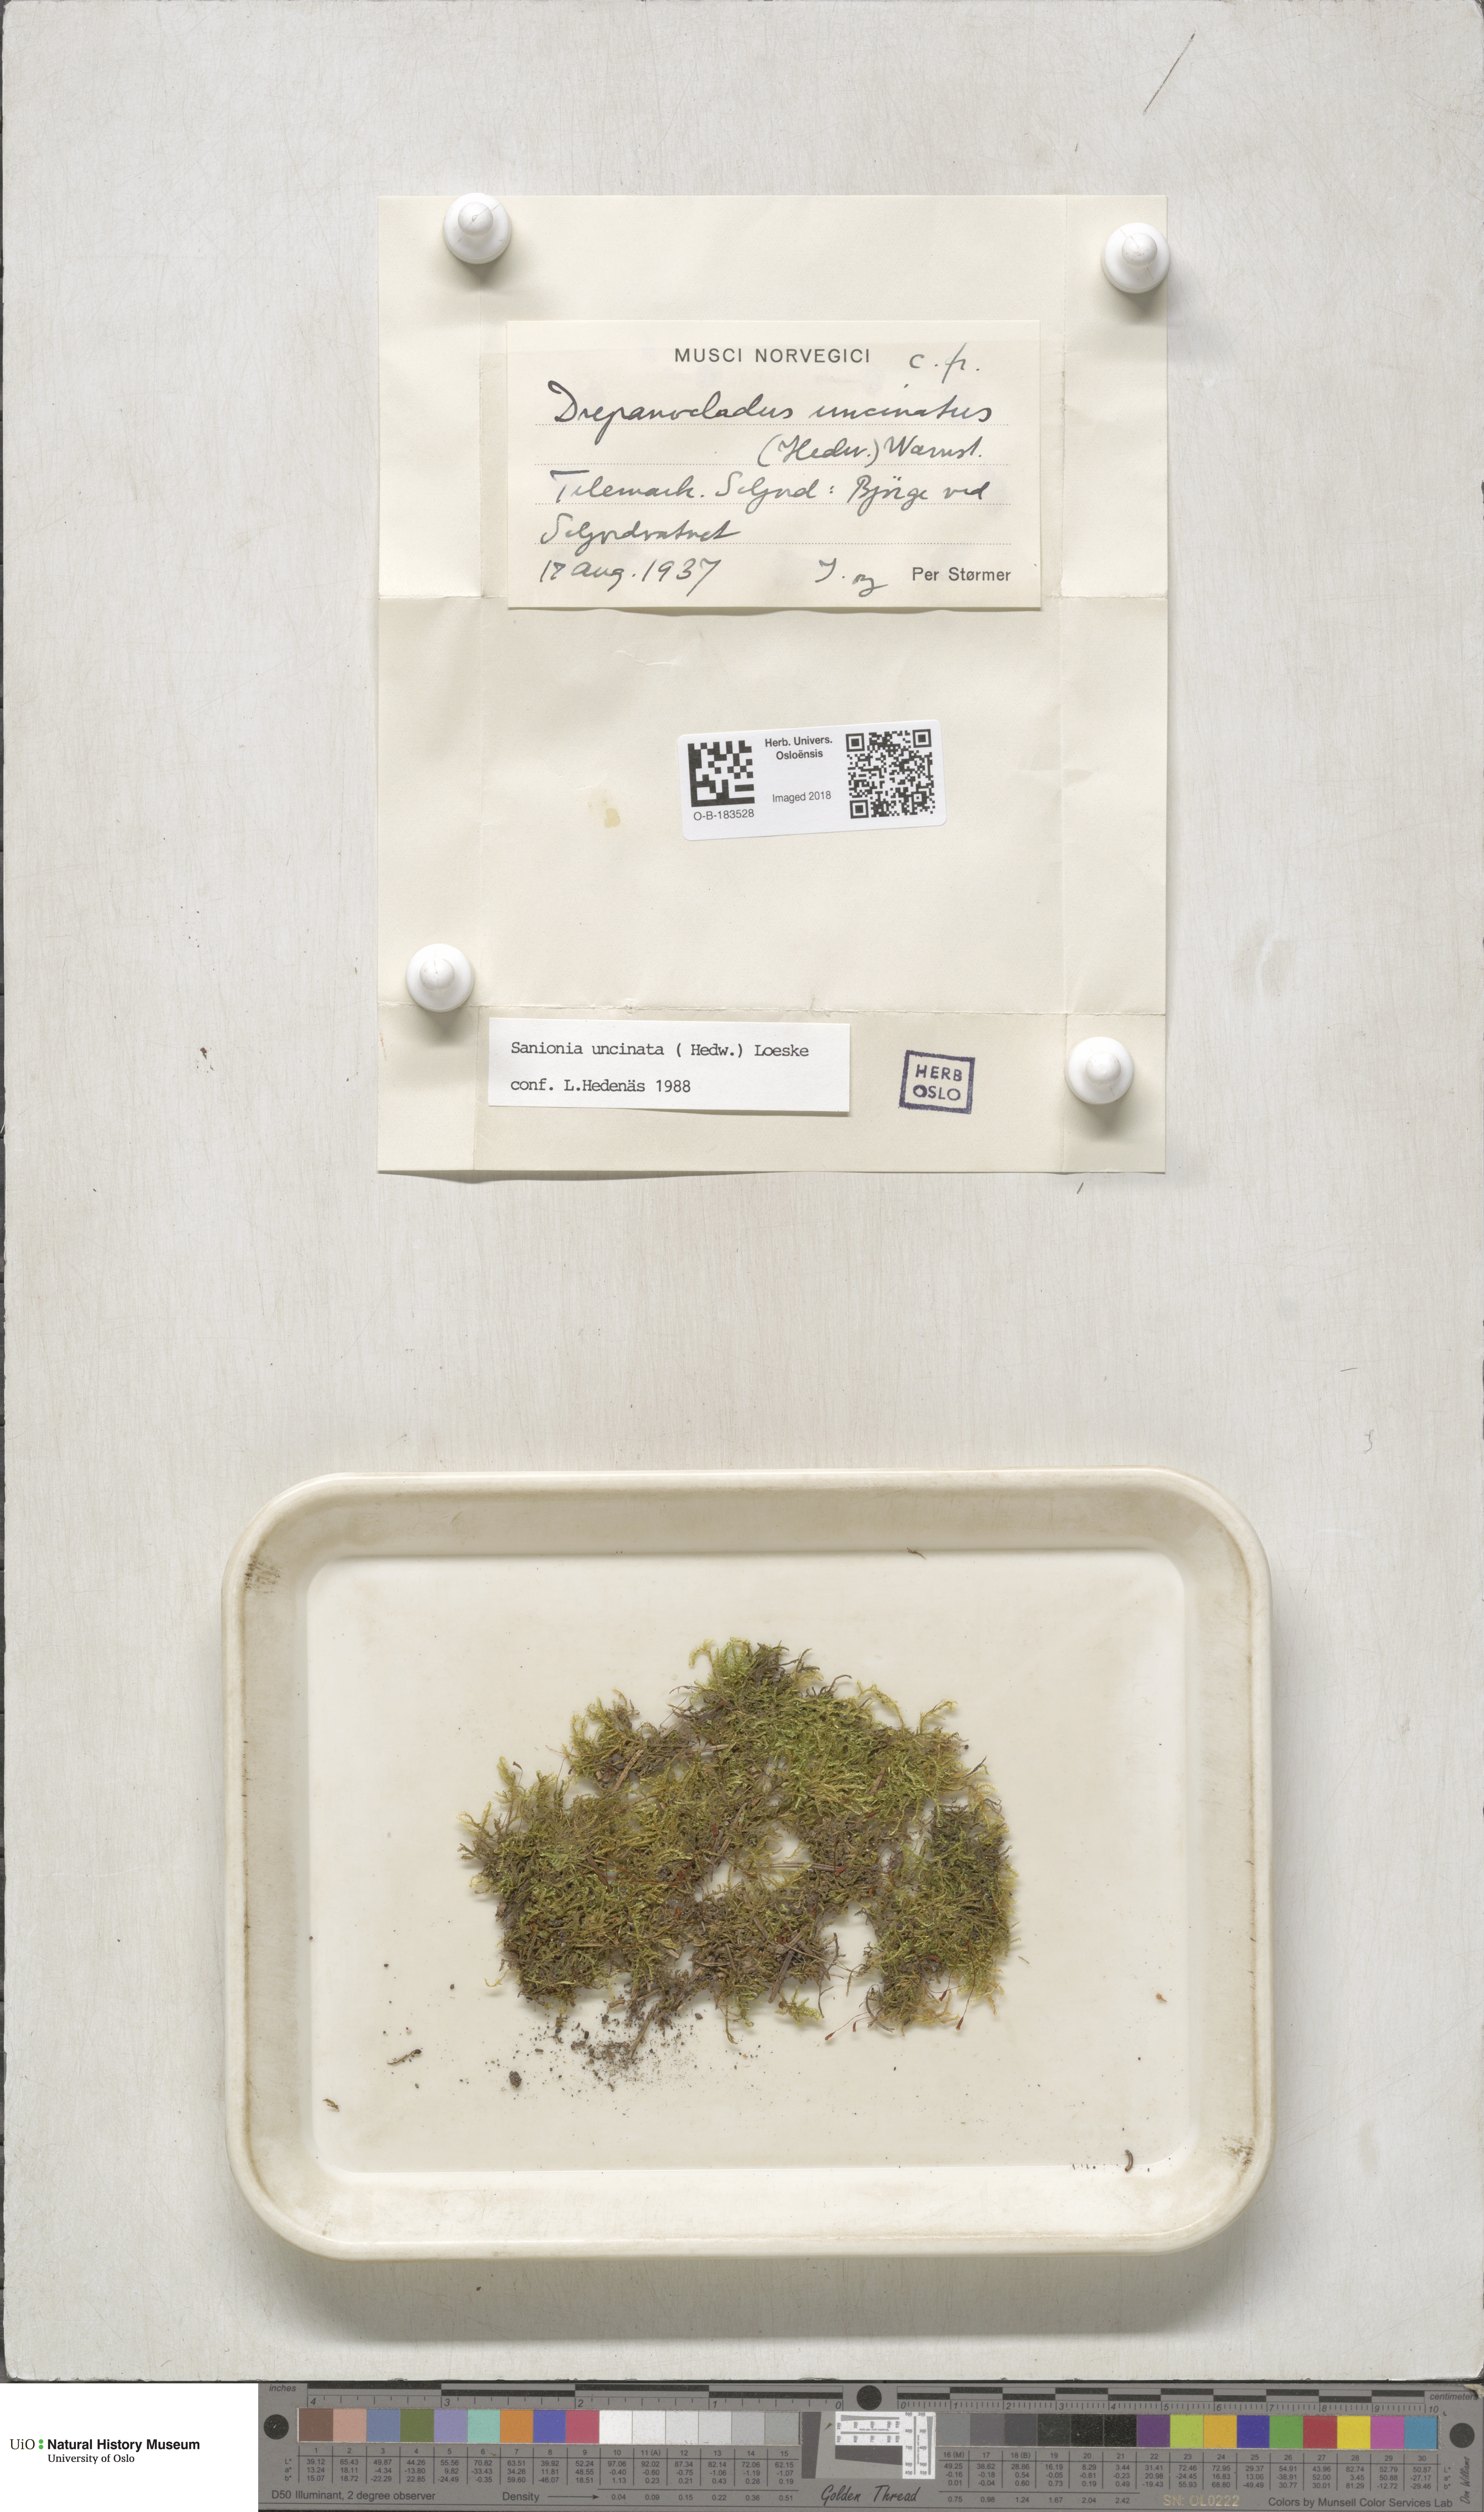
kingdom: Plantae
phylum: Bryophyta
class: Bryopsida
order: Hypnales
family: Scorpidiaceae
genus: Sanionia
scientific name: Sanionia uncinata
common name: Sickle moss
